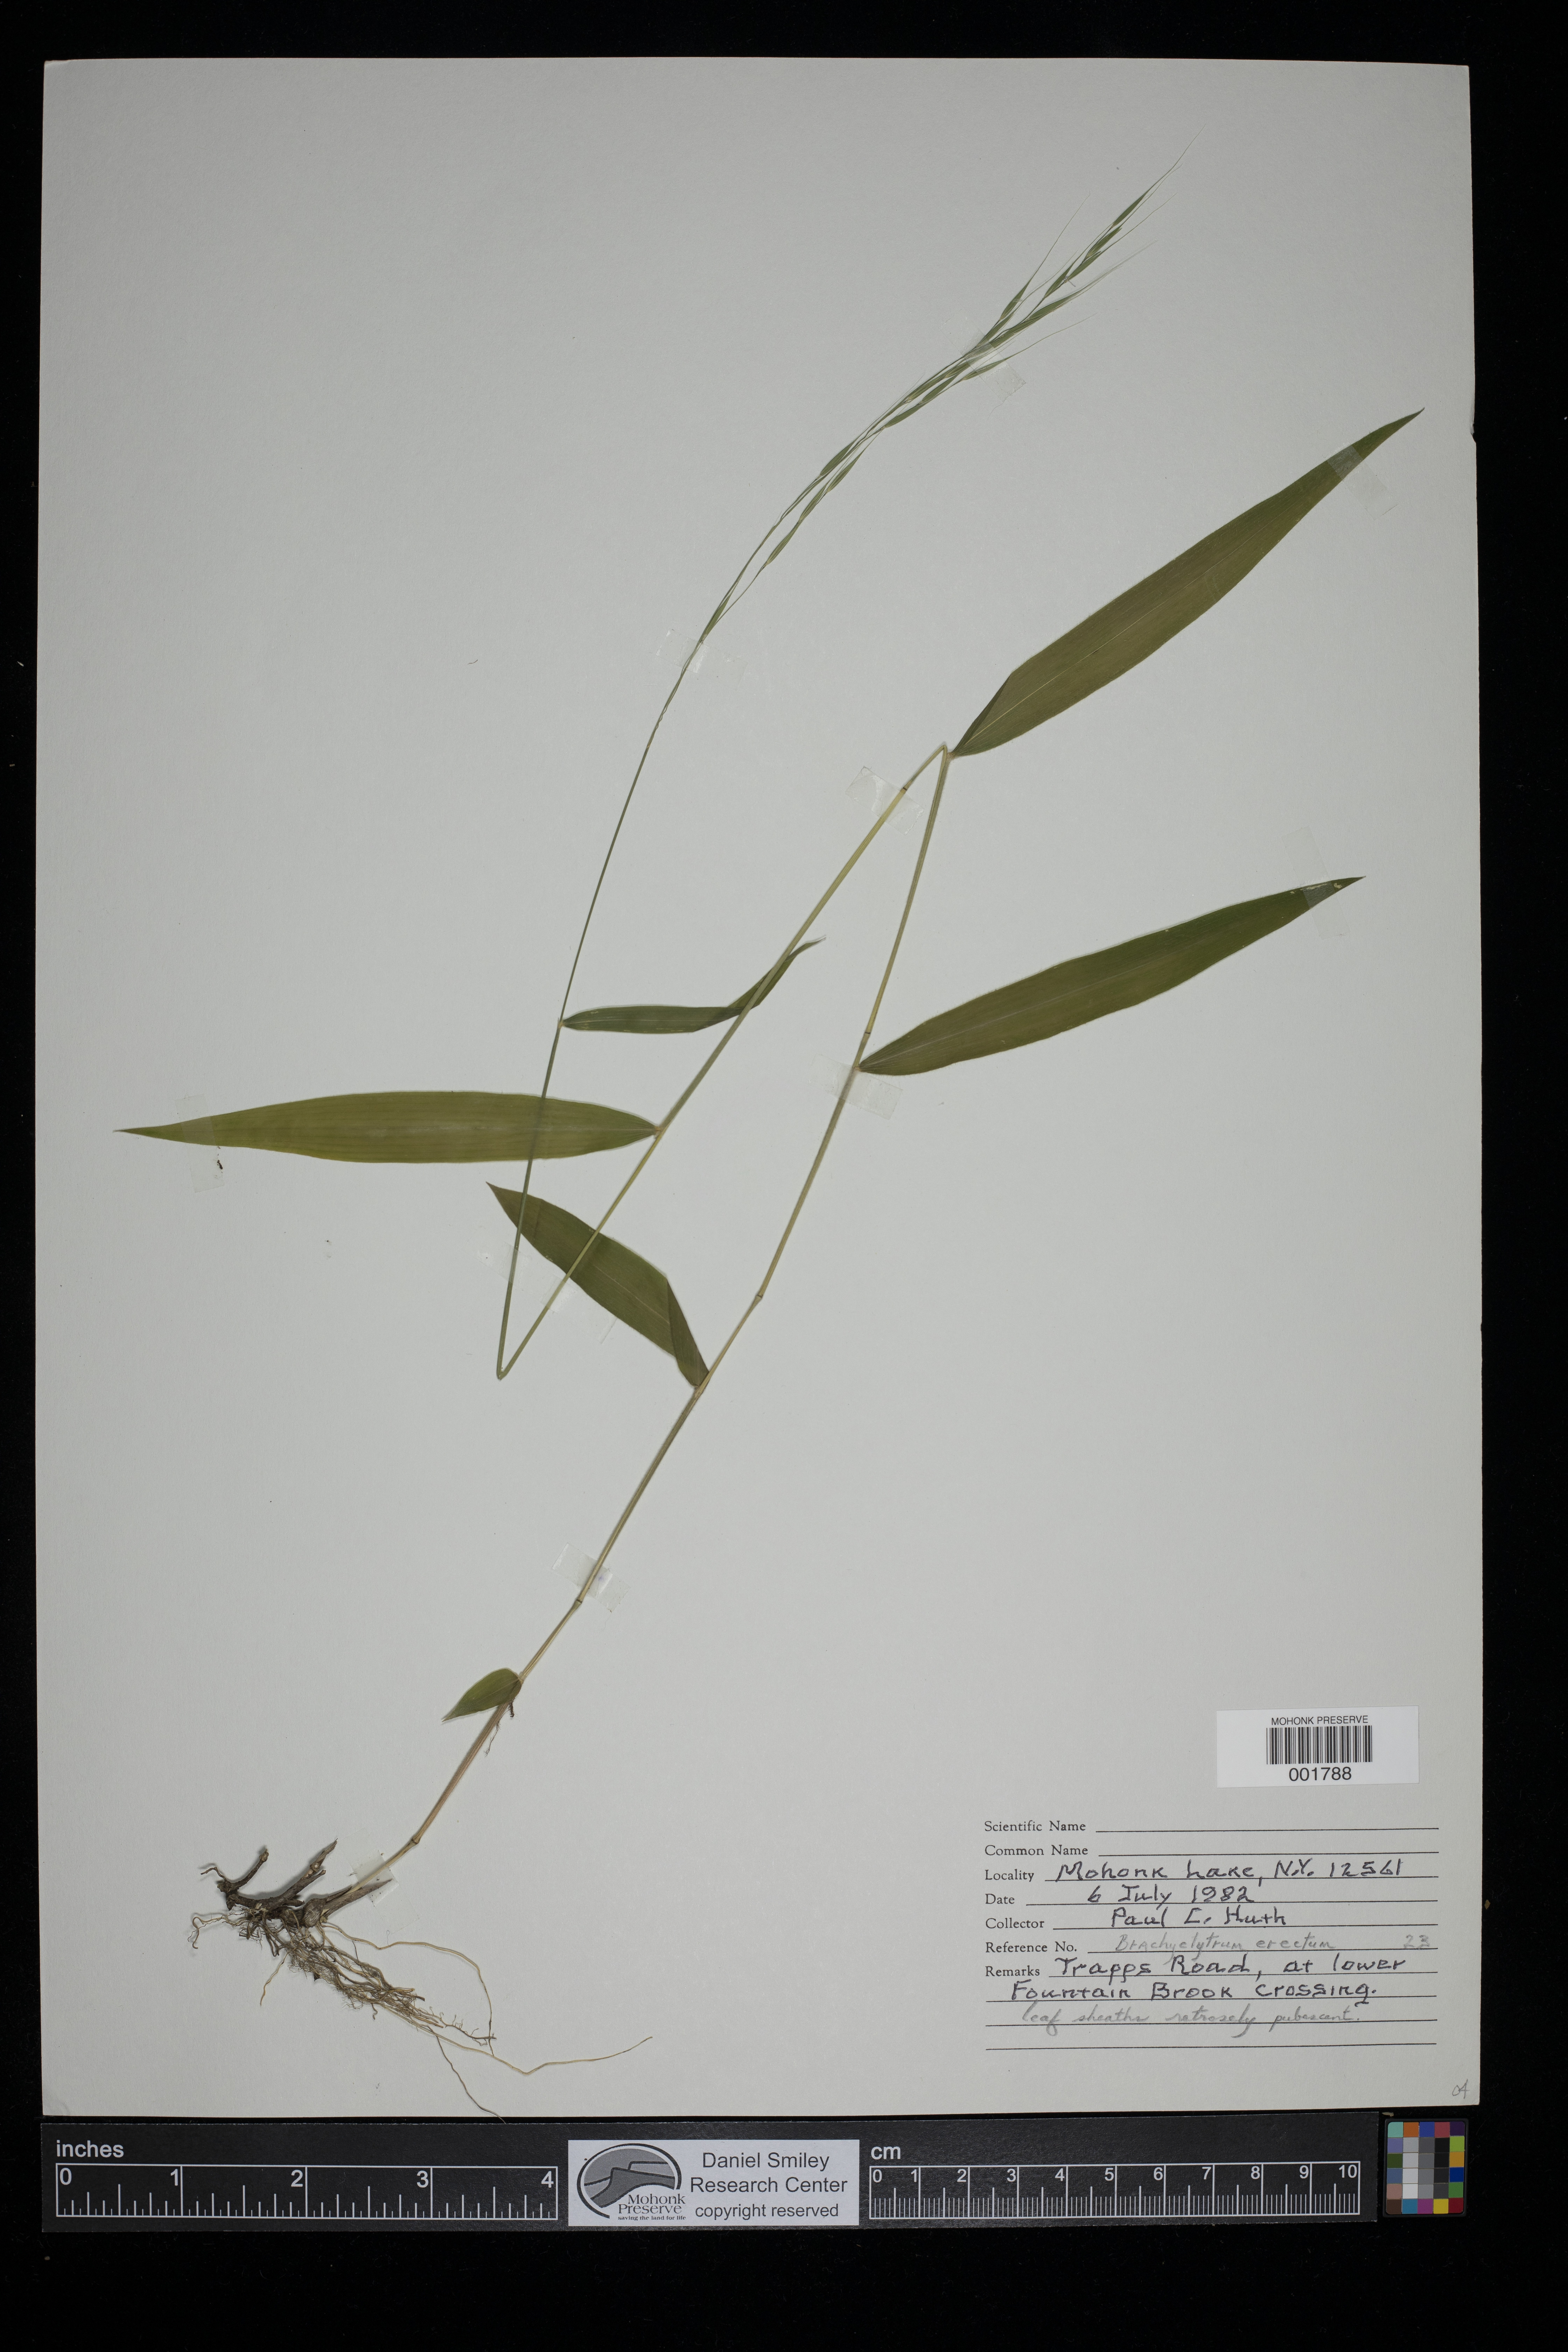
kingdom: Plantae
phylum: Tracheophyta
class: Liliopsida
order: Poales
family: Poaceae
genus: Brachyelytrum
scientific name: Brachyelytrum erectum
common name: Bearded shorthusk
